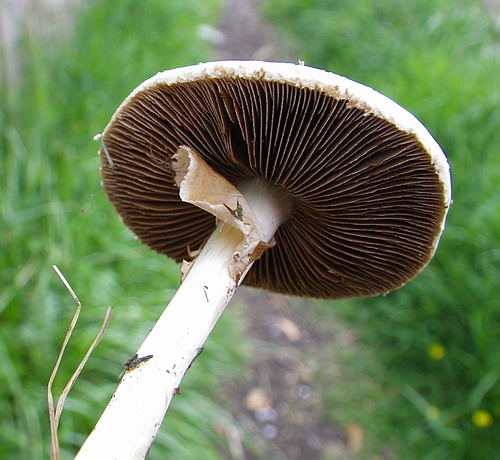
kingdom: Fungi
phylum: Basidiomycota
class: Agaricomycetes
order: Agaricales
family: Strophariaceae
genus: Agrocybe
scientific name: Agrocybe praecox
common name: tidlig agerhat
